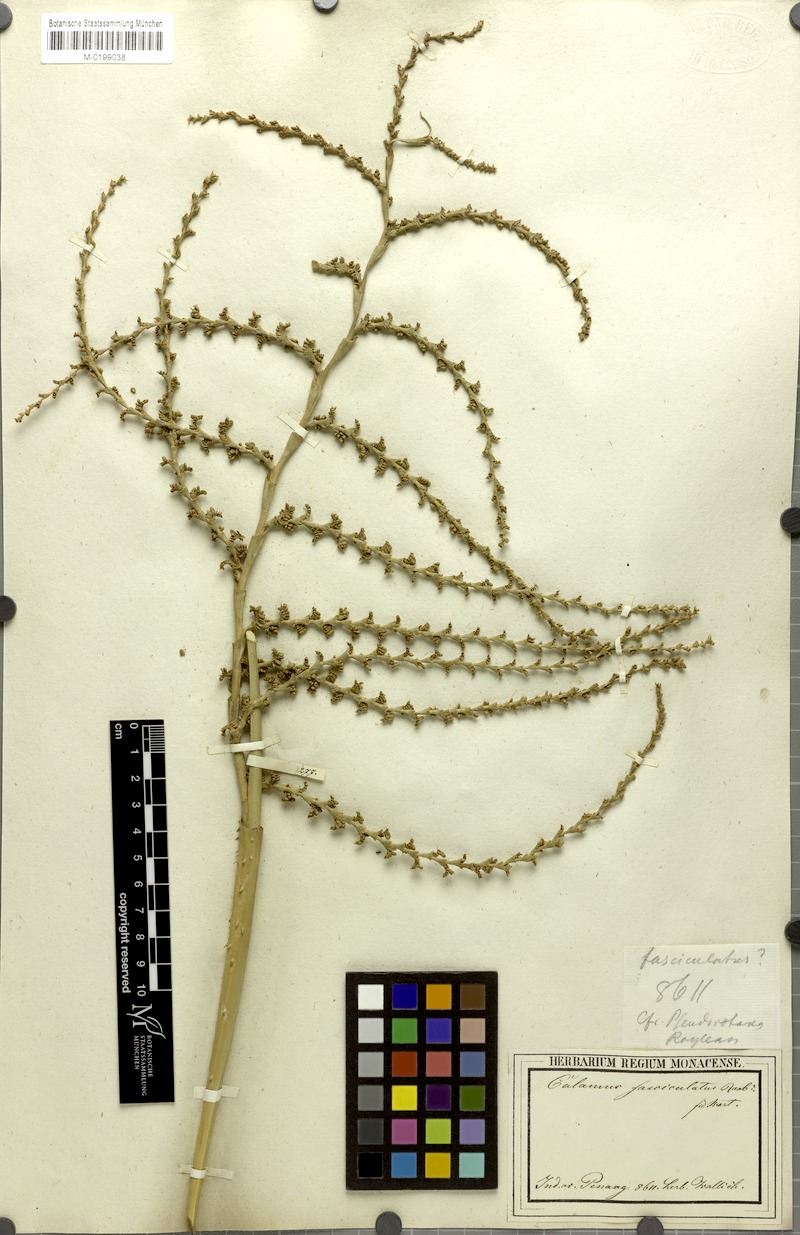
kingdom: Plantae
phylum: Tracheophyta
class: Liliopsida
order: Arecales
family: Arecaceae
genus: Calamus
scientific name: Calamus viminalis
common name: Osier-like rattan palm
